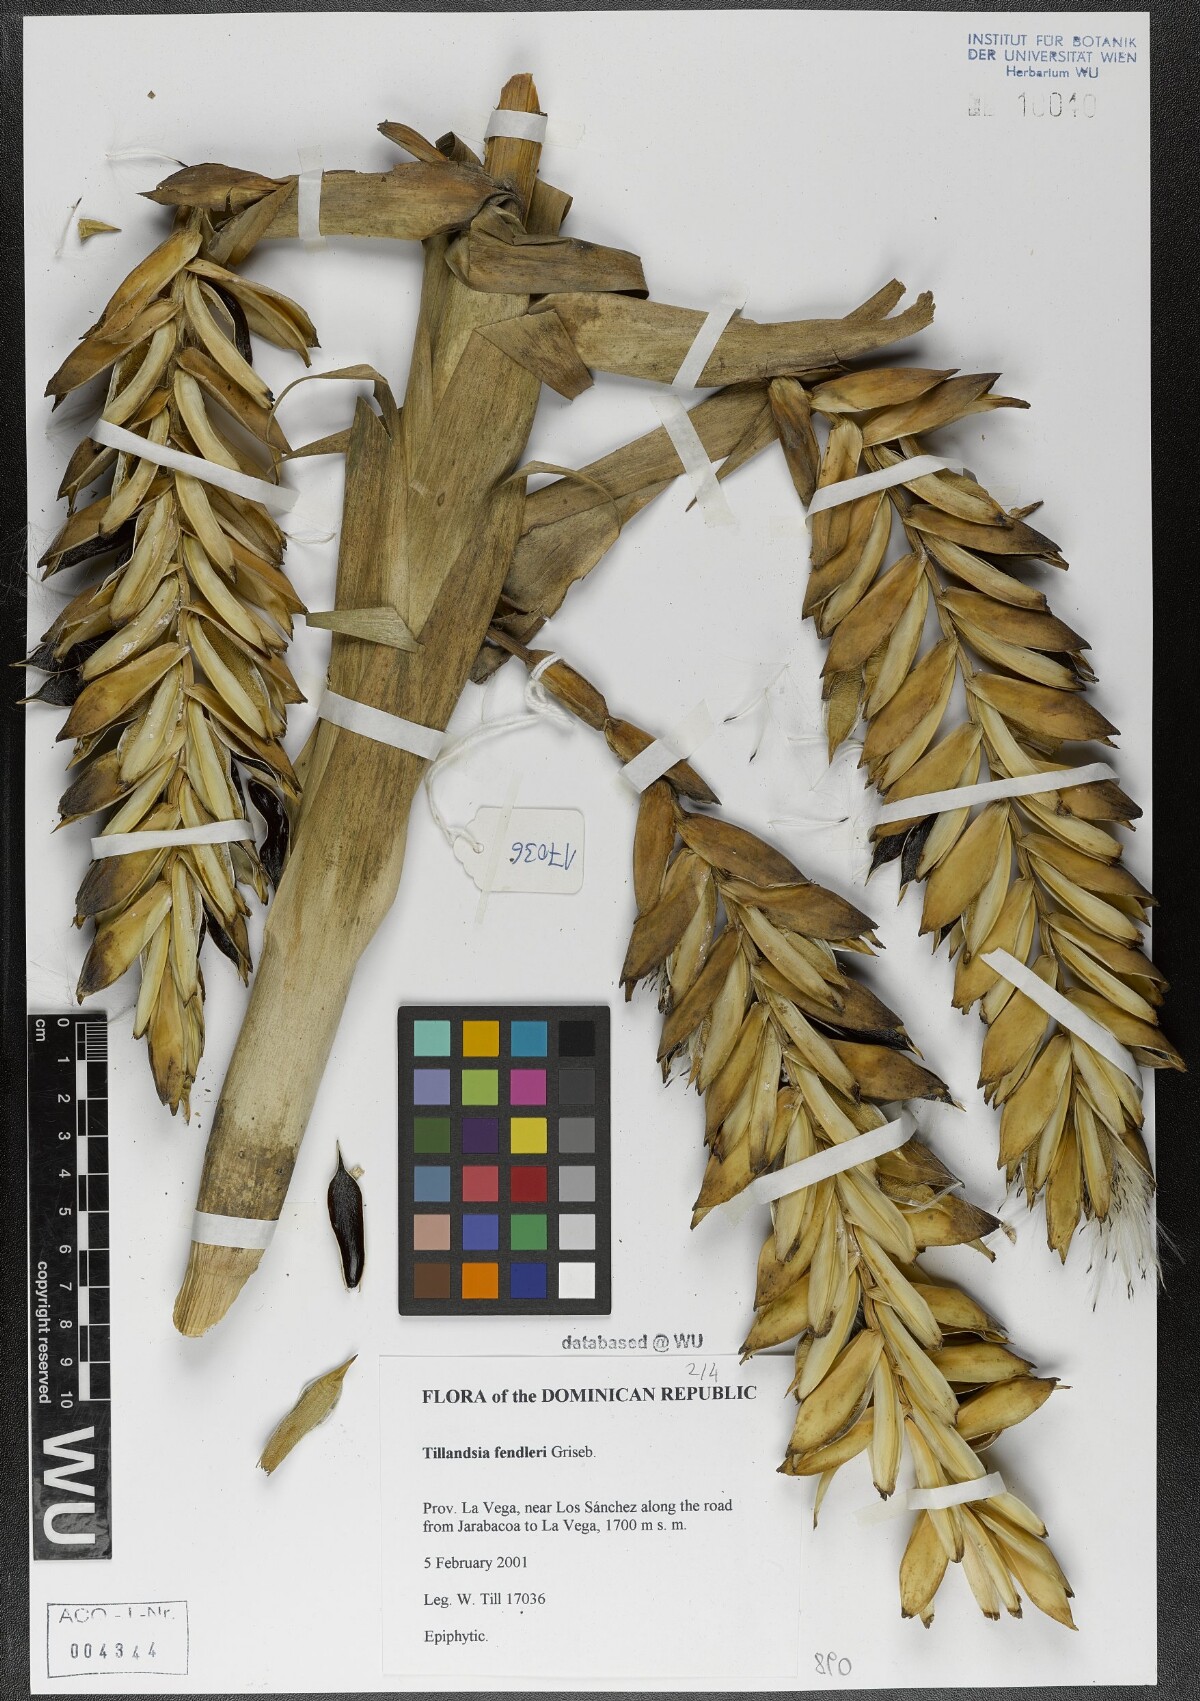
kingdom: Plantae
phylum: Tracheophyta
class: Liliopsida
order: Poales
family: Bromeliaceae
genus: Tillandsia
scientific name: Tillandsia fendleri
